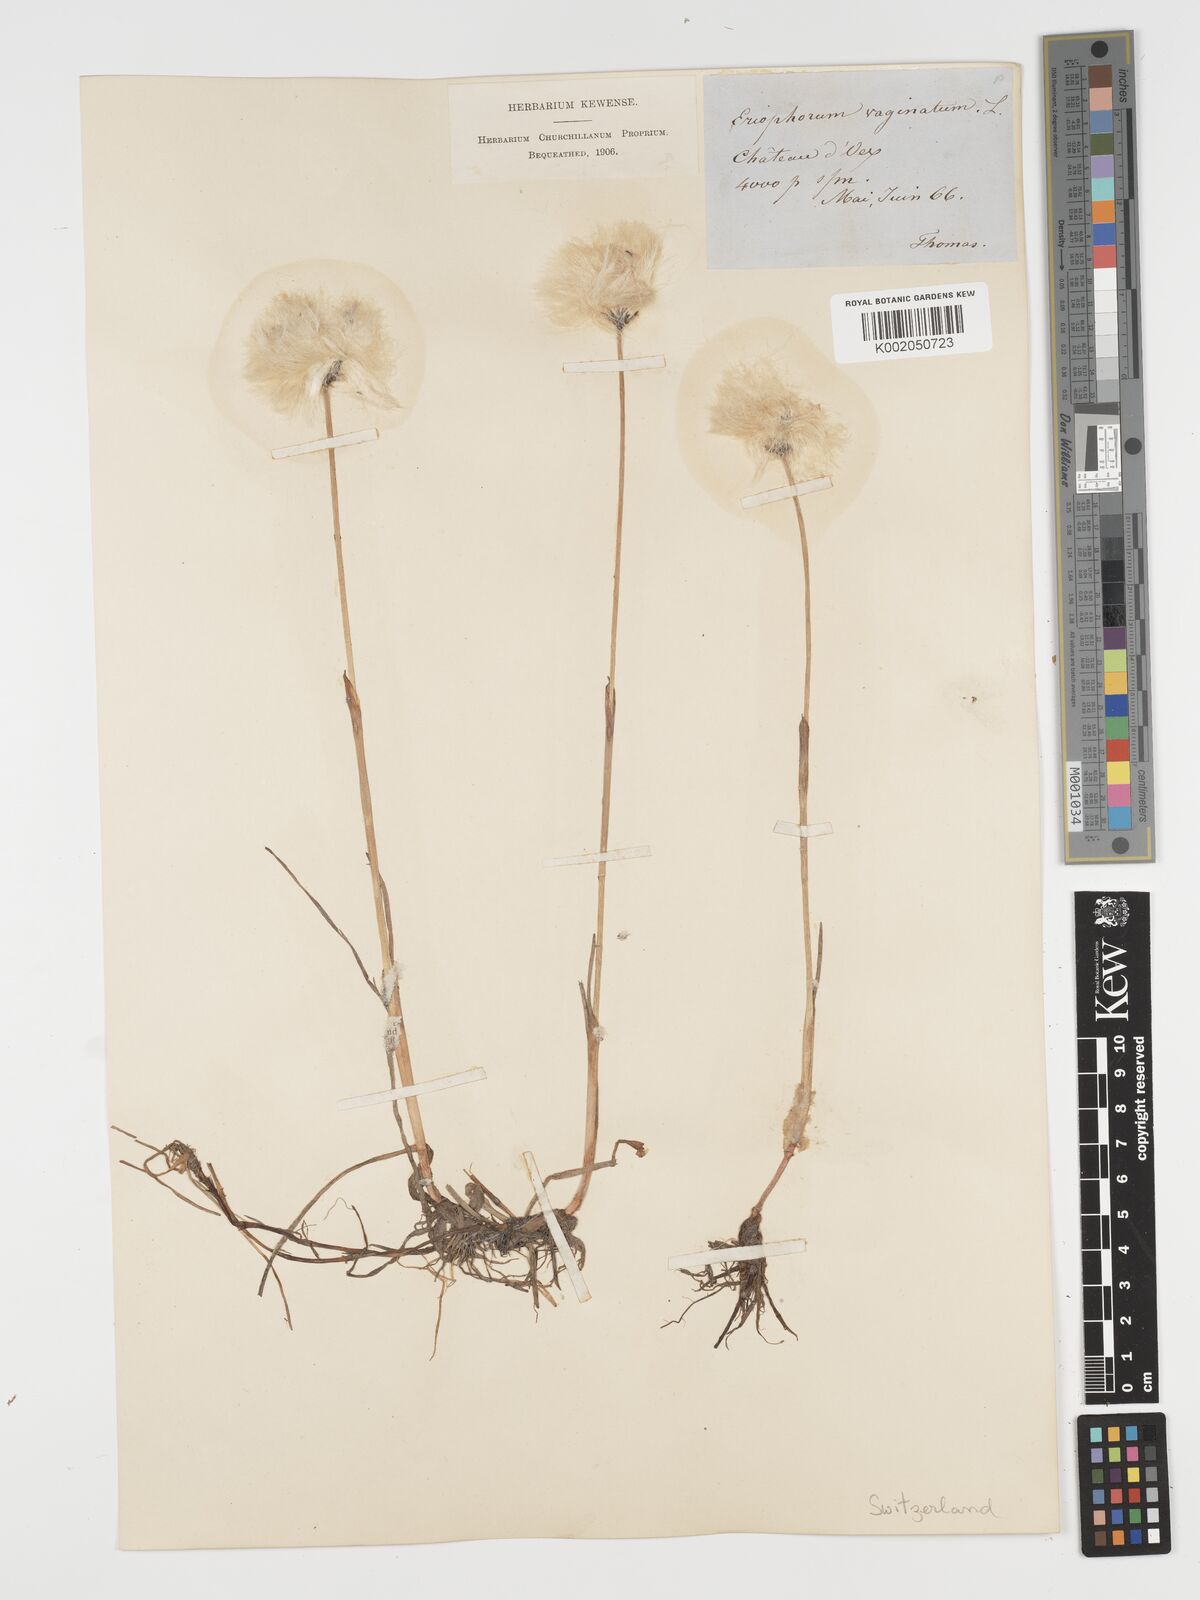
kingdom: Plantae
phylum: Tracheophyta
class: Liliopsida
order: Poales
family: Cyperaceae
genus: Eriophorum
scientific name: Eriophorum vaginatum
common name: Hare's-tail cottongrass
